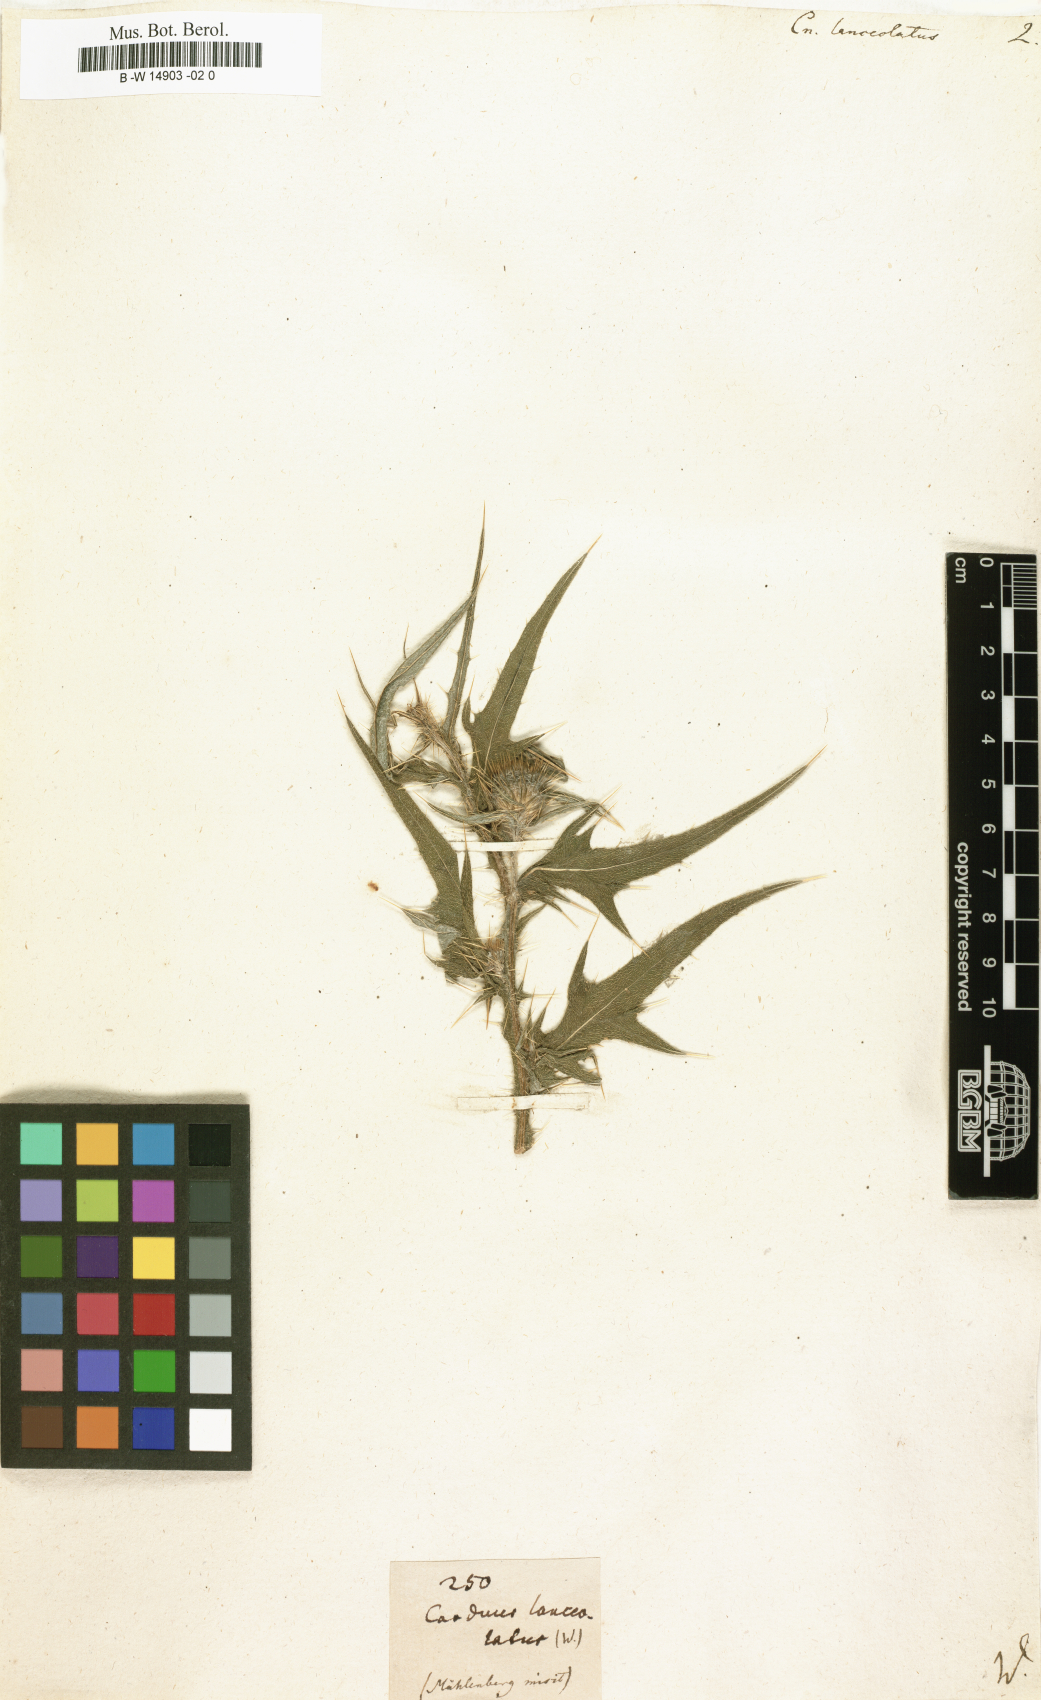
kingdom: Plantae
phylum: Tracheophyta
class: Magnoliopsida
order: Asterales
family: Asteraceae
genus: Cirsium
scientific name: Cirsium vulgare
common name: Bull thistle
